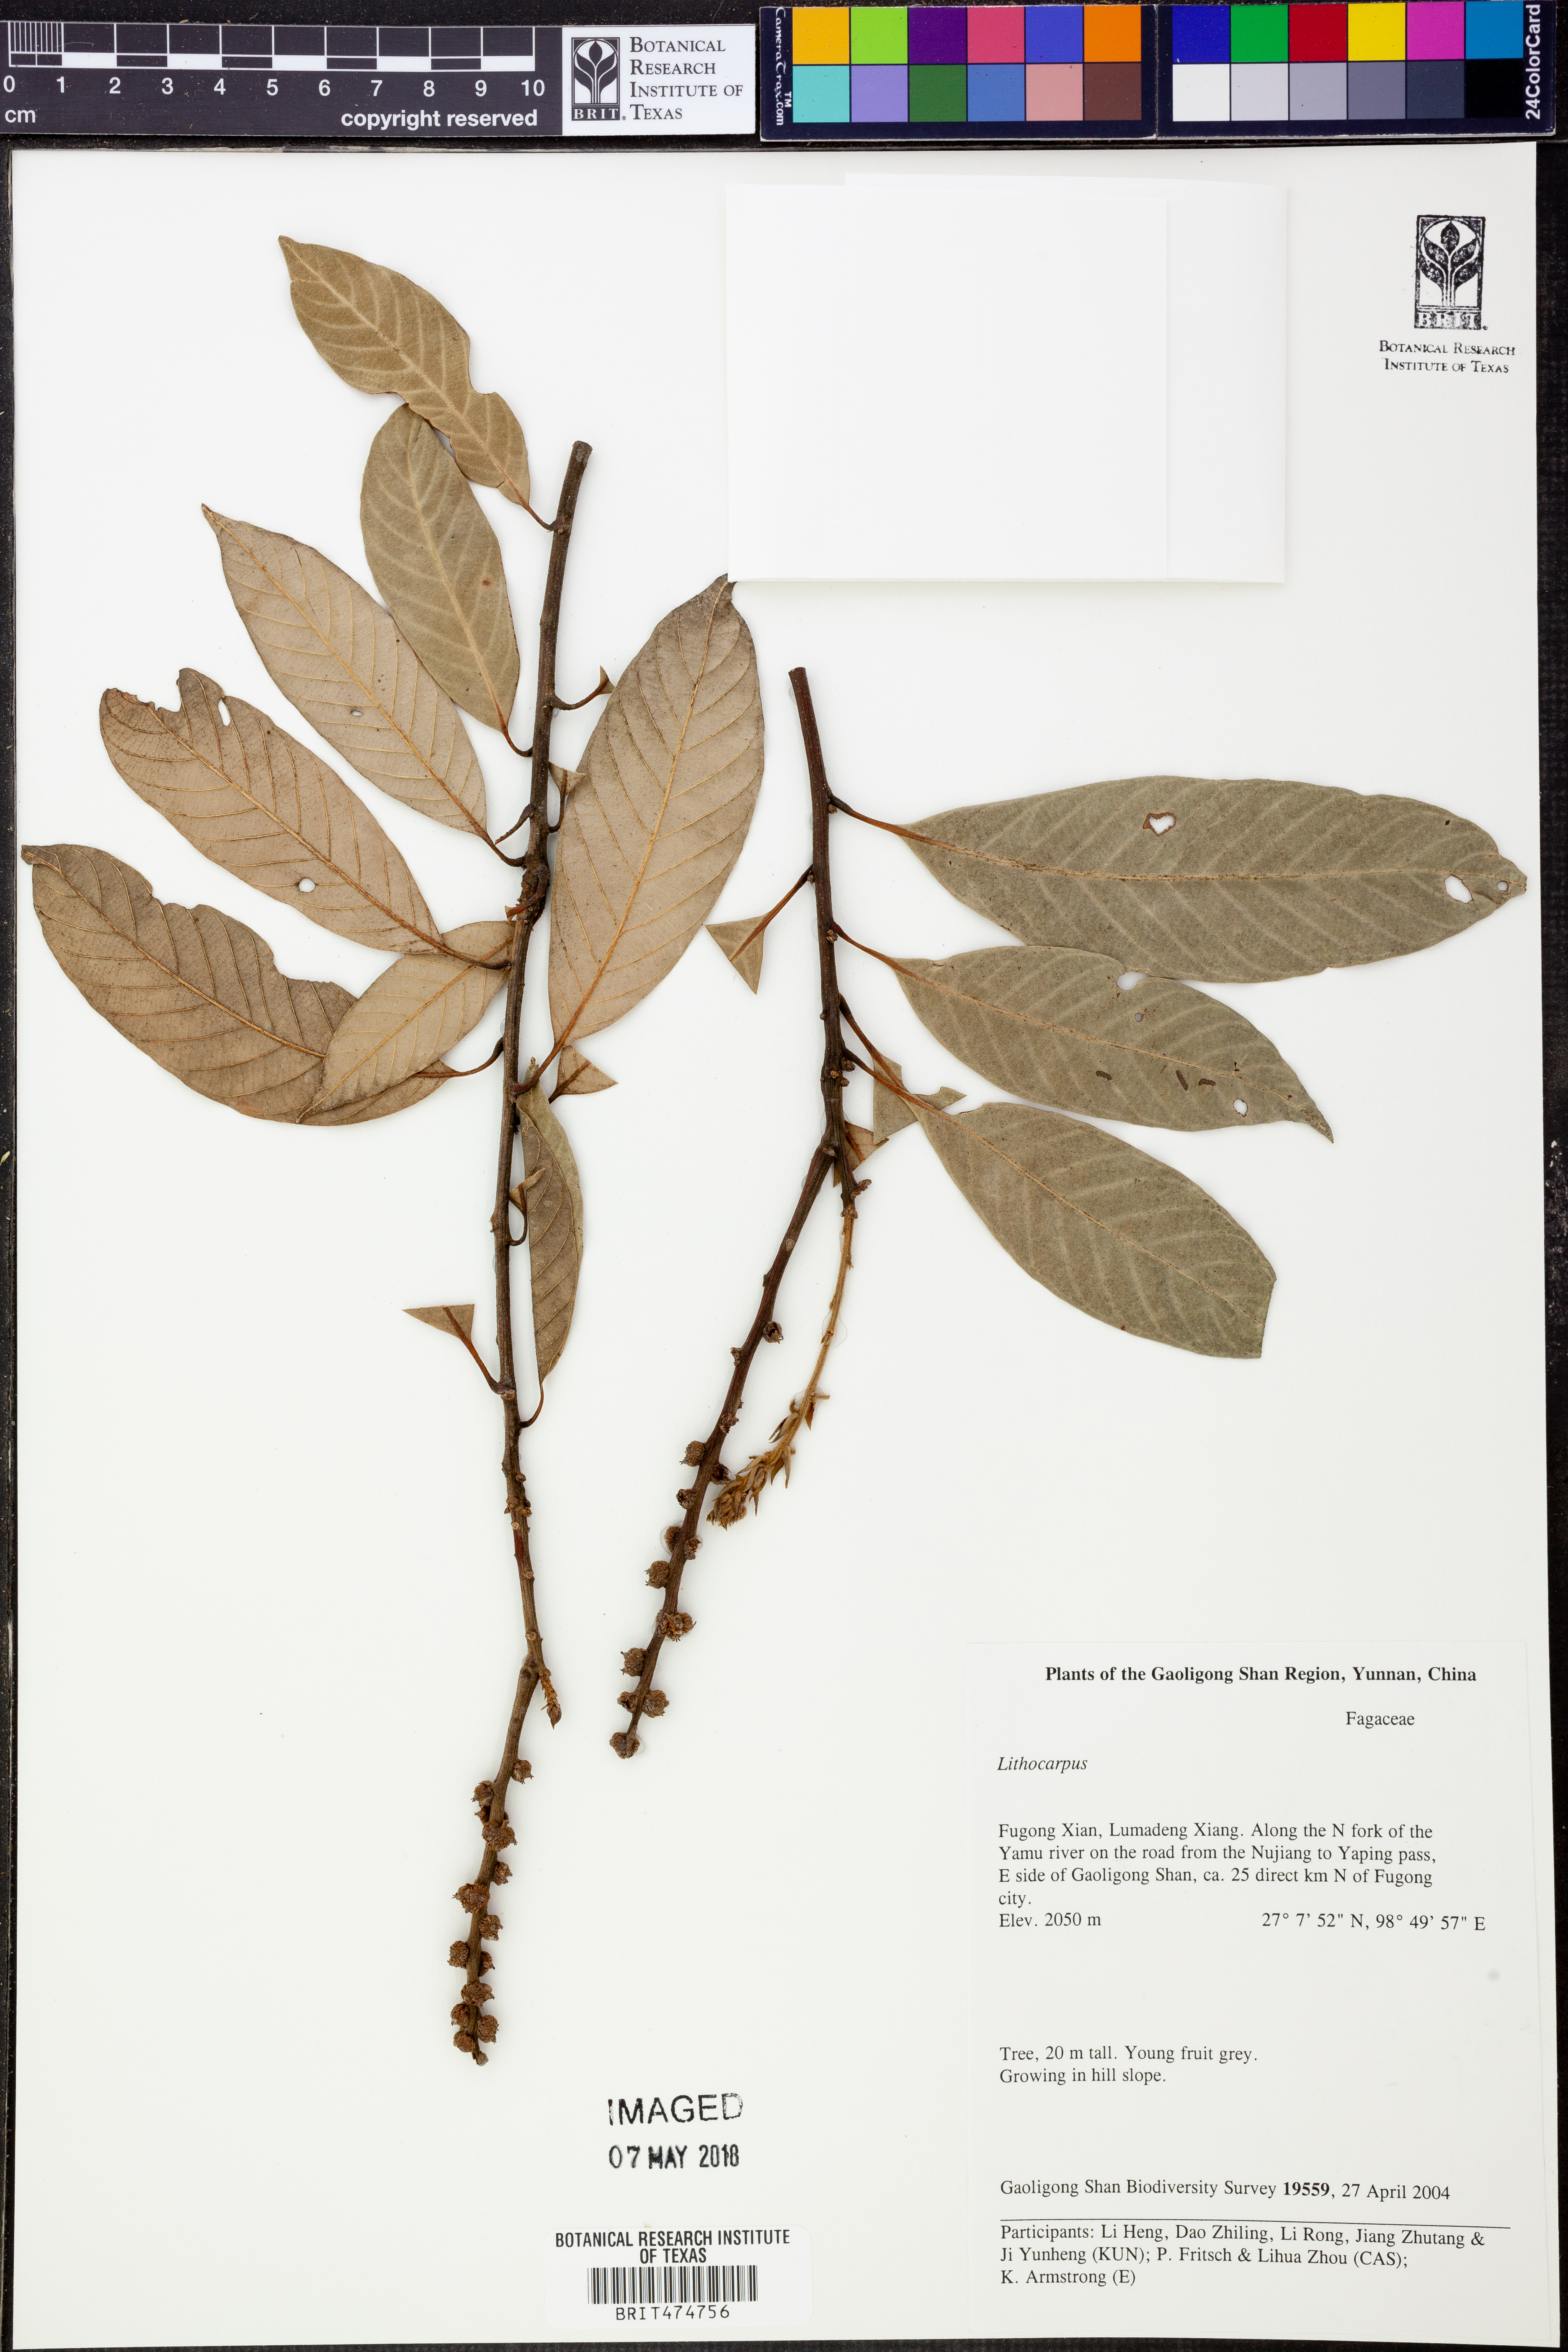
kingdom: Plantae
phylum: Tracheophyta
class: Magnoliopsida
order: Fagales
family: Fagaceae
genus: Lithocarpus
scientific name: Lithocarpus
